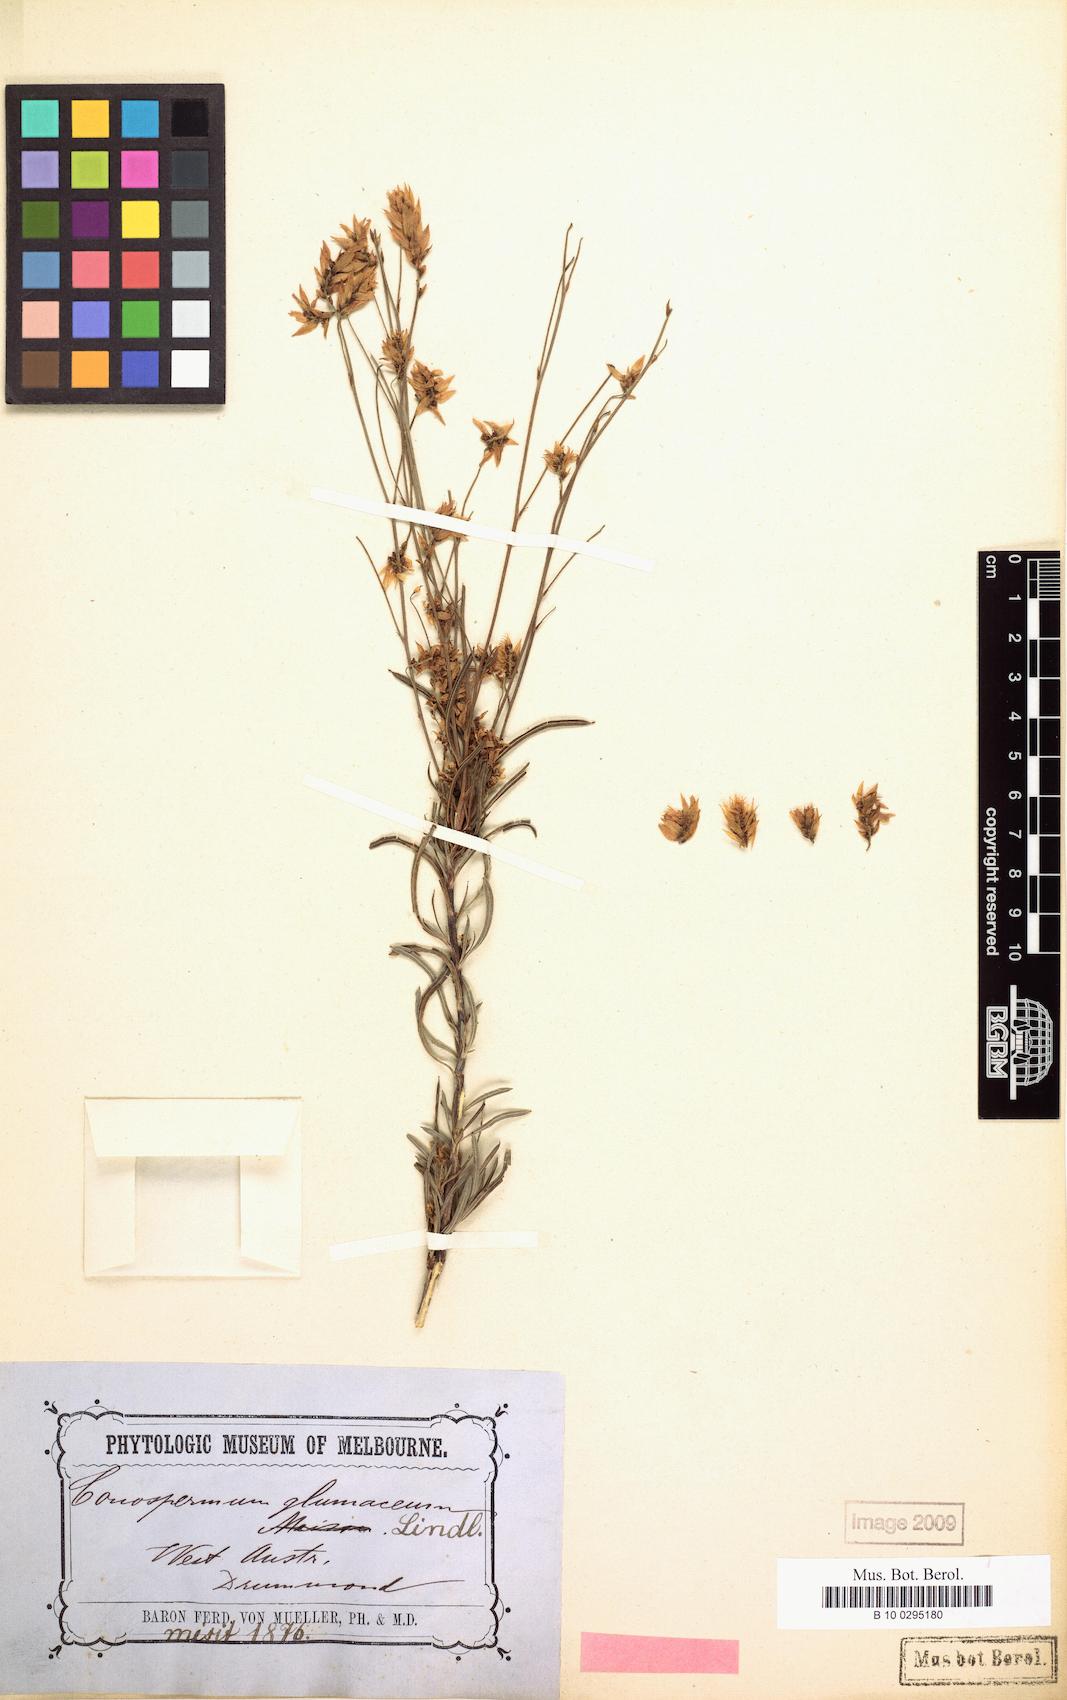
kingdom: Plantae
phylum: Tracheophyta
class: Magnoliopsida
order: Proteales
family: Proteaceae
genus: Conospermum
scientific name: Conospermum glumaceum
